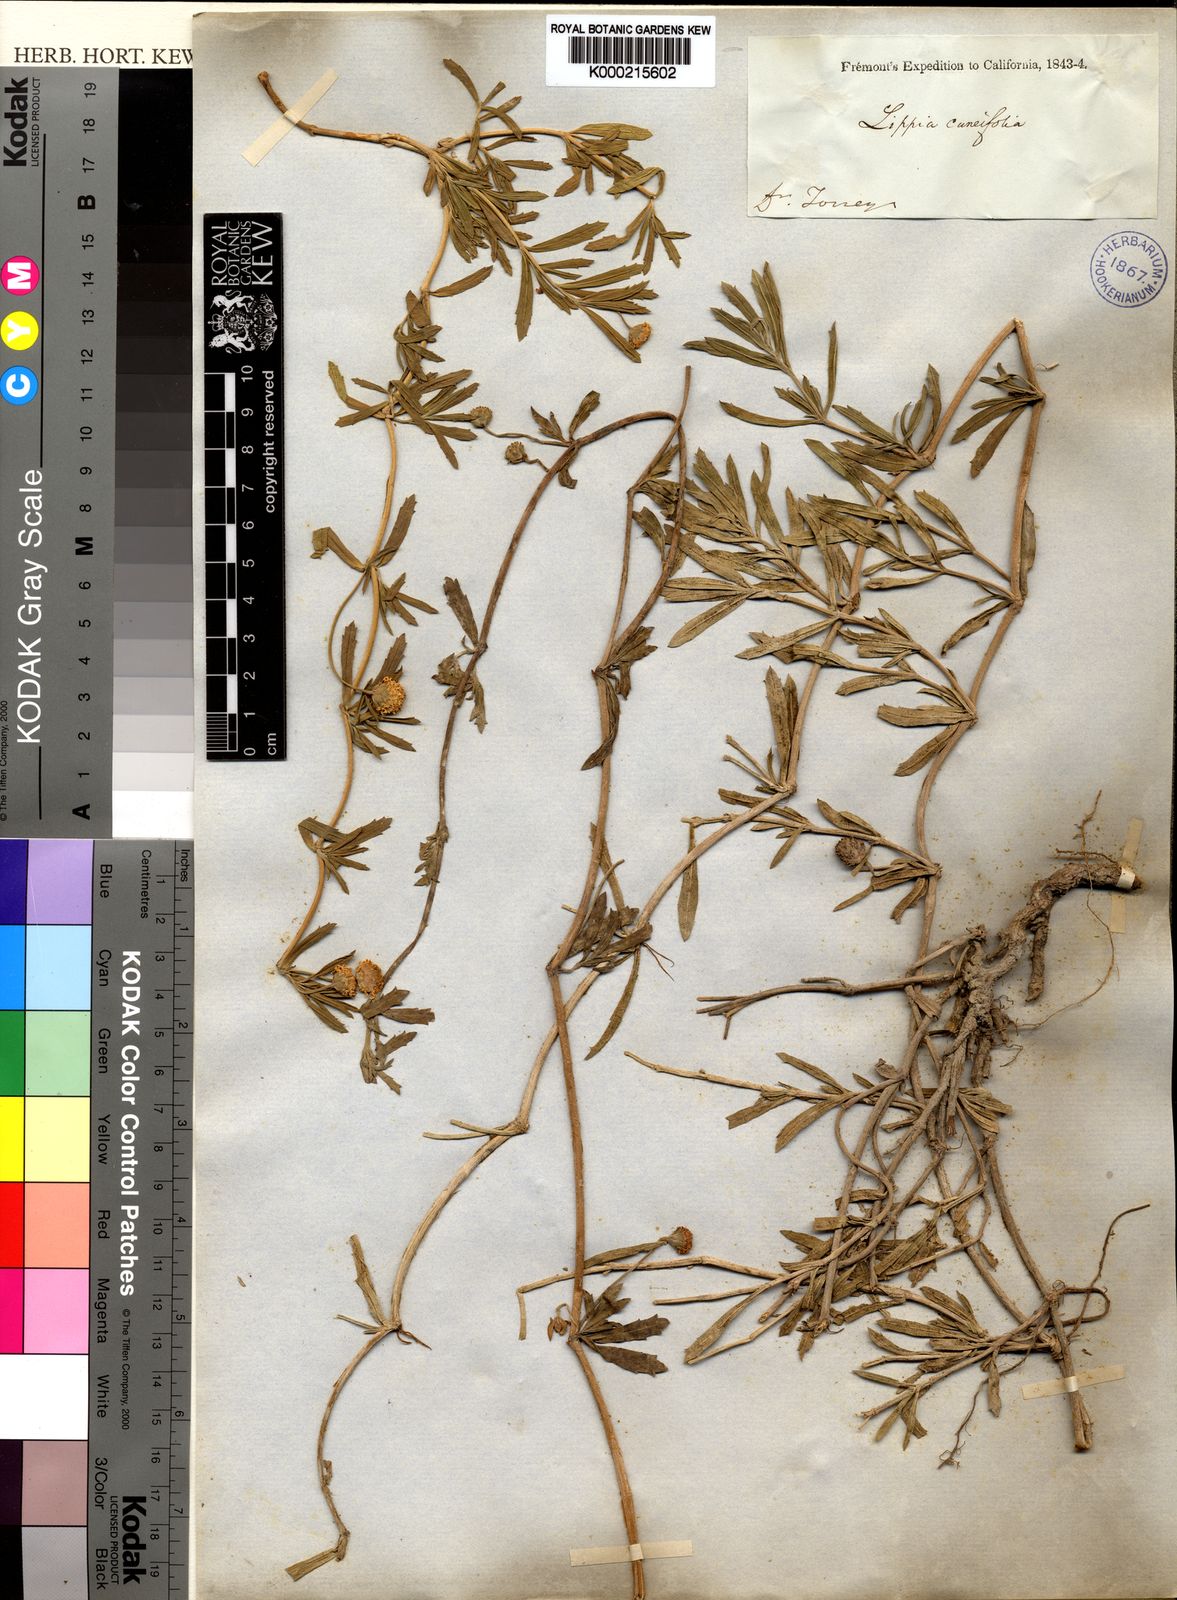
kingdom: Plantae
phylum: Tracheophyta
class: Magnoliopsida
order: Lamiales
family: Verbenaceae
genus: Lippia
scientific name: Lippia
